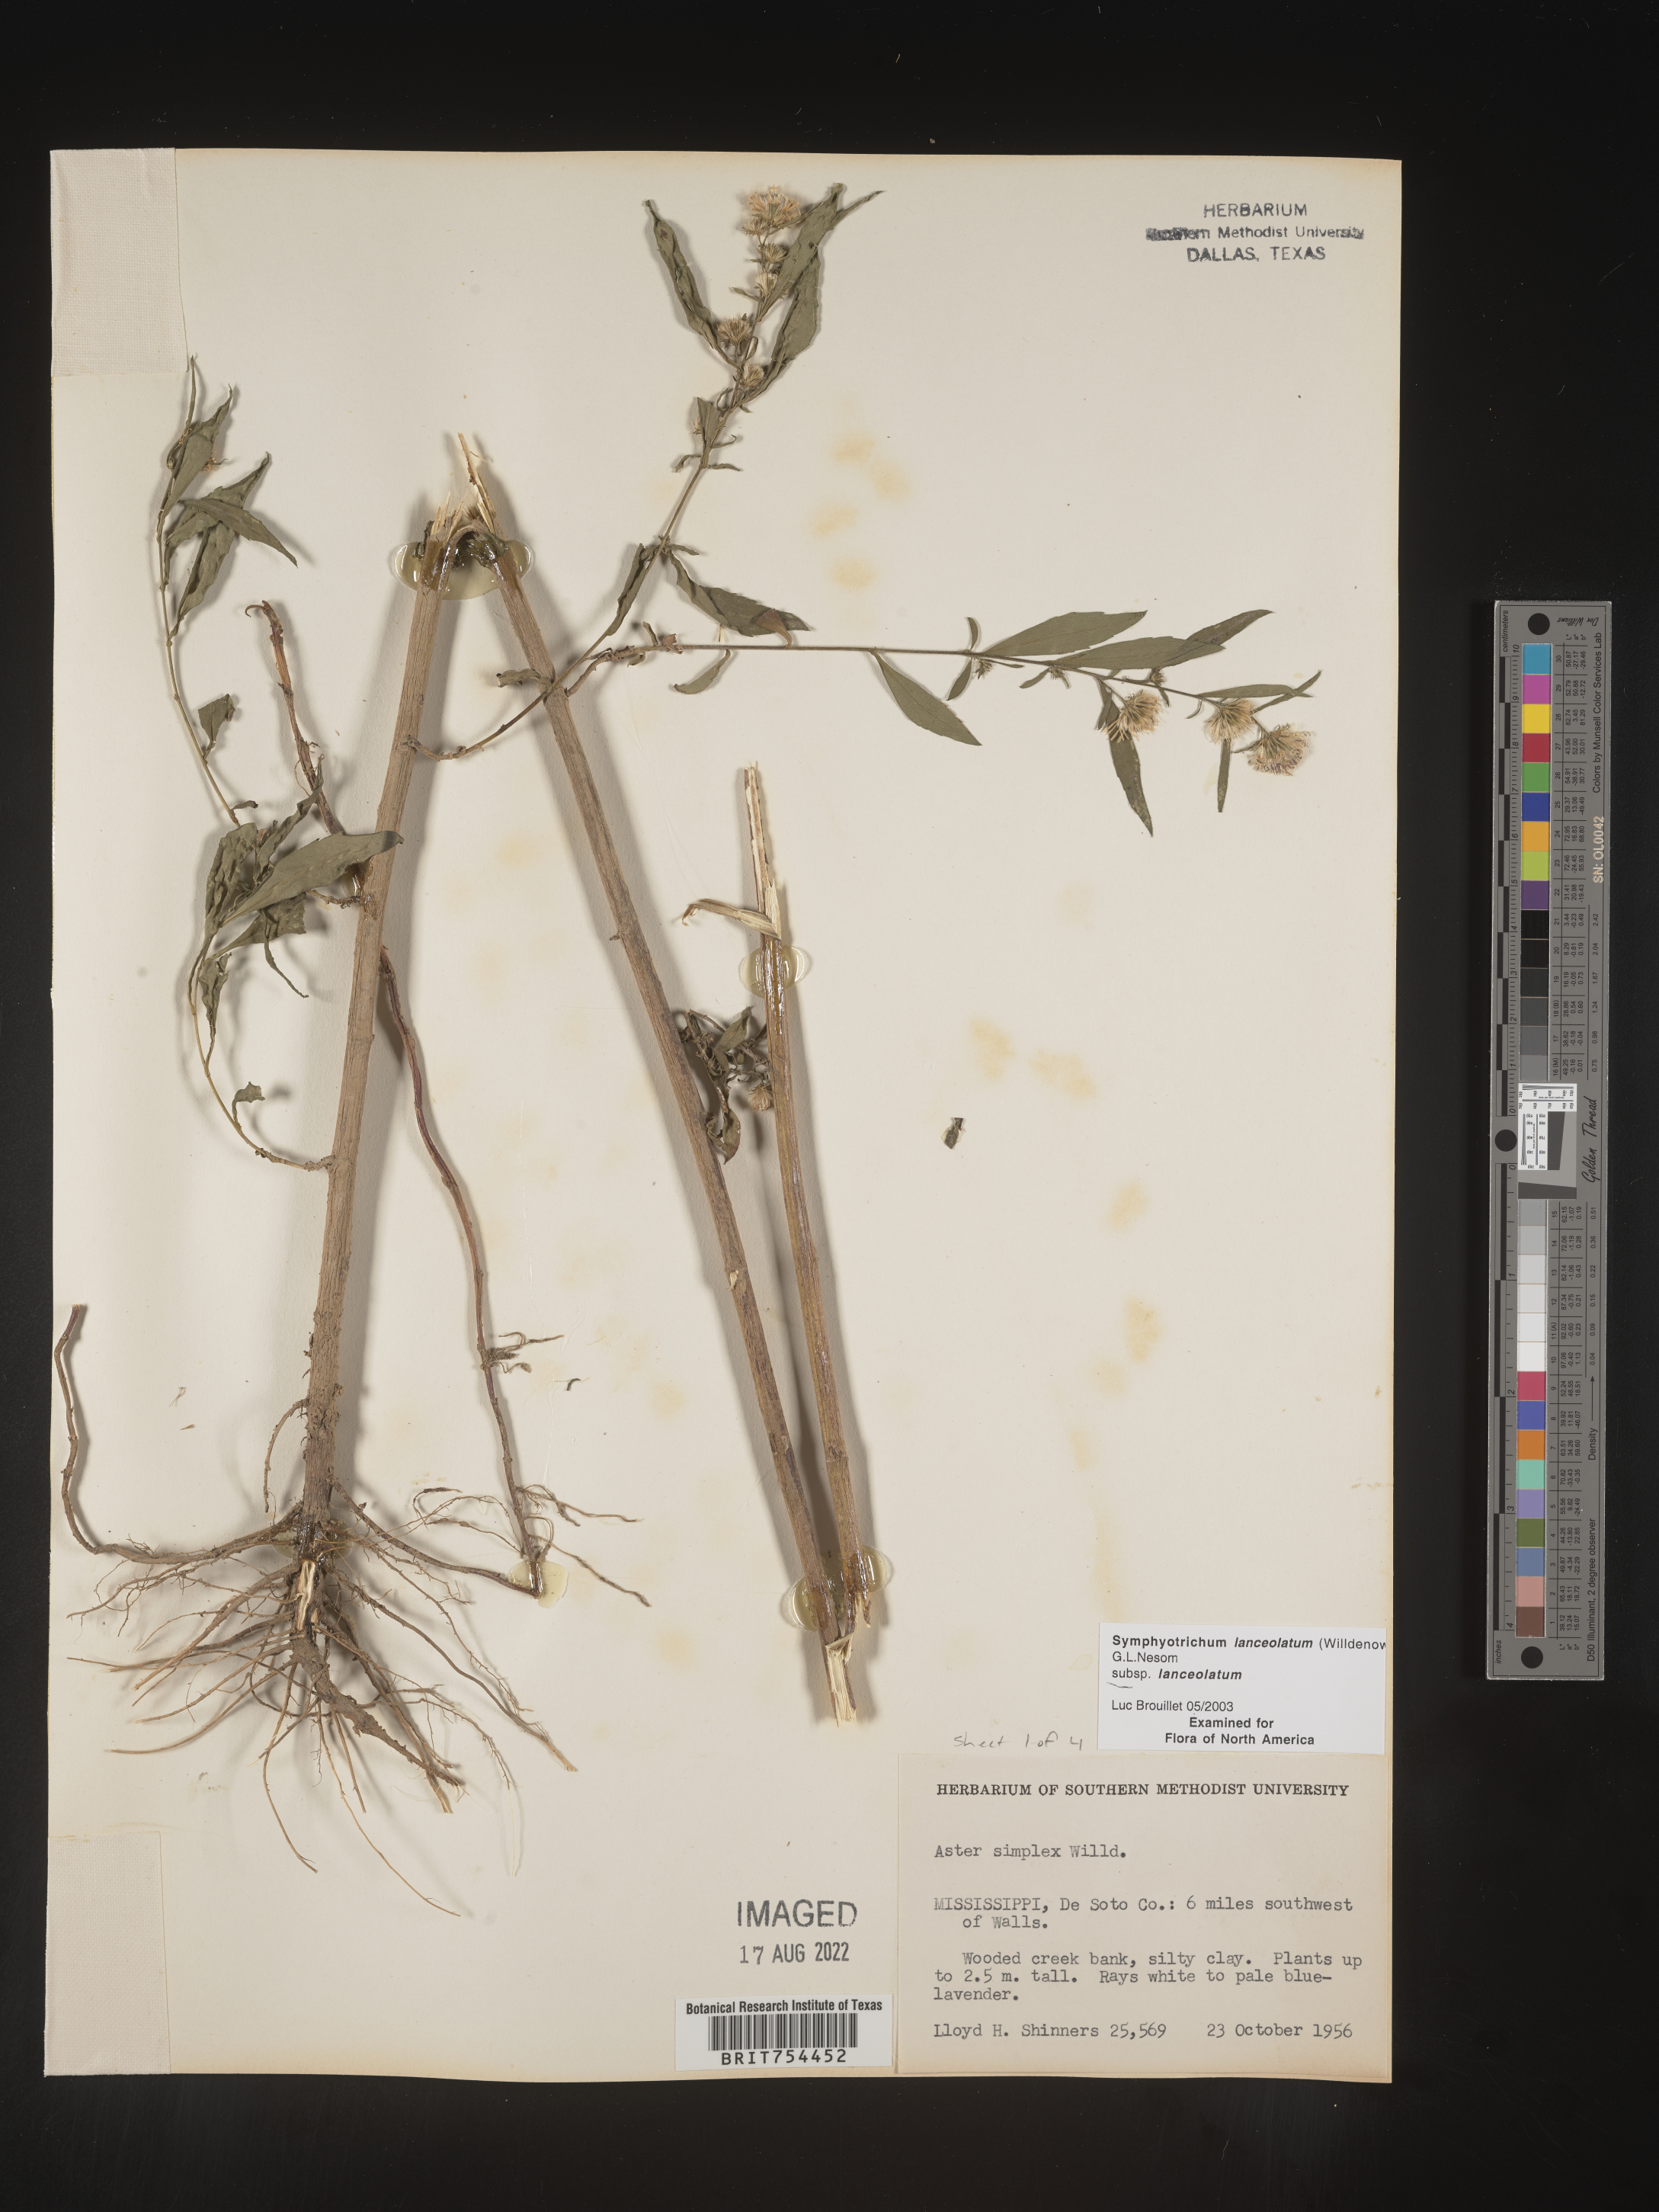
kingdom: Plantae
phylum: Tracheophyta
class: Magnoliopsida
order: Asterales
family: Asteraceae
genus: Symphyotrichum
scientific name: Symphyotrichum lanceolatum
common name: Panicled aster
